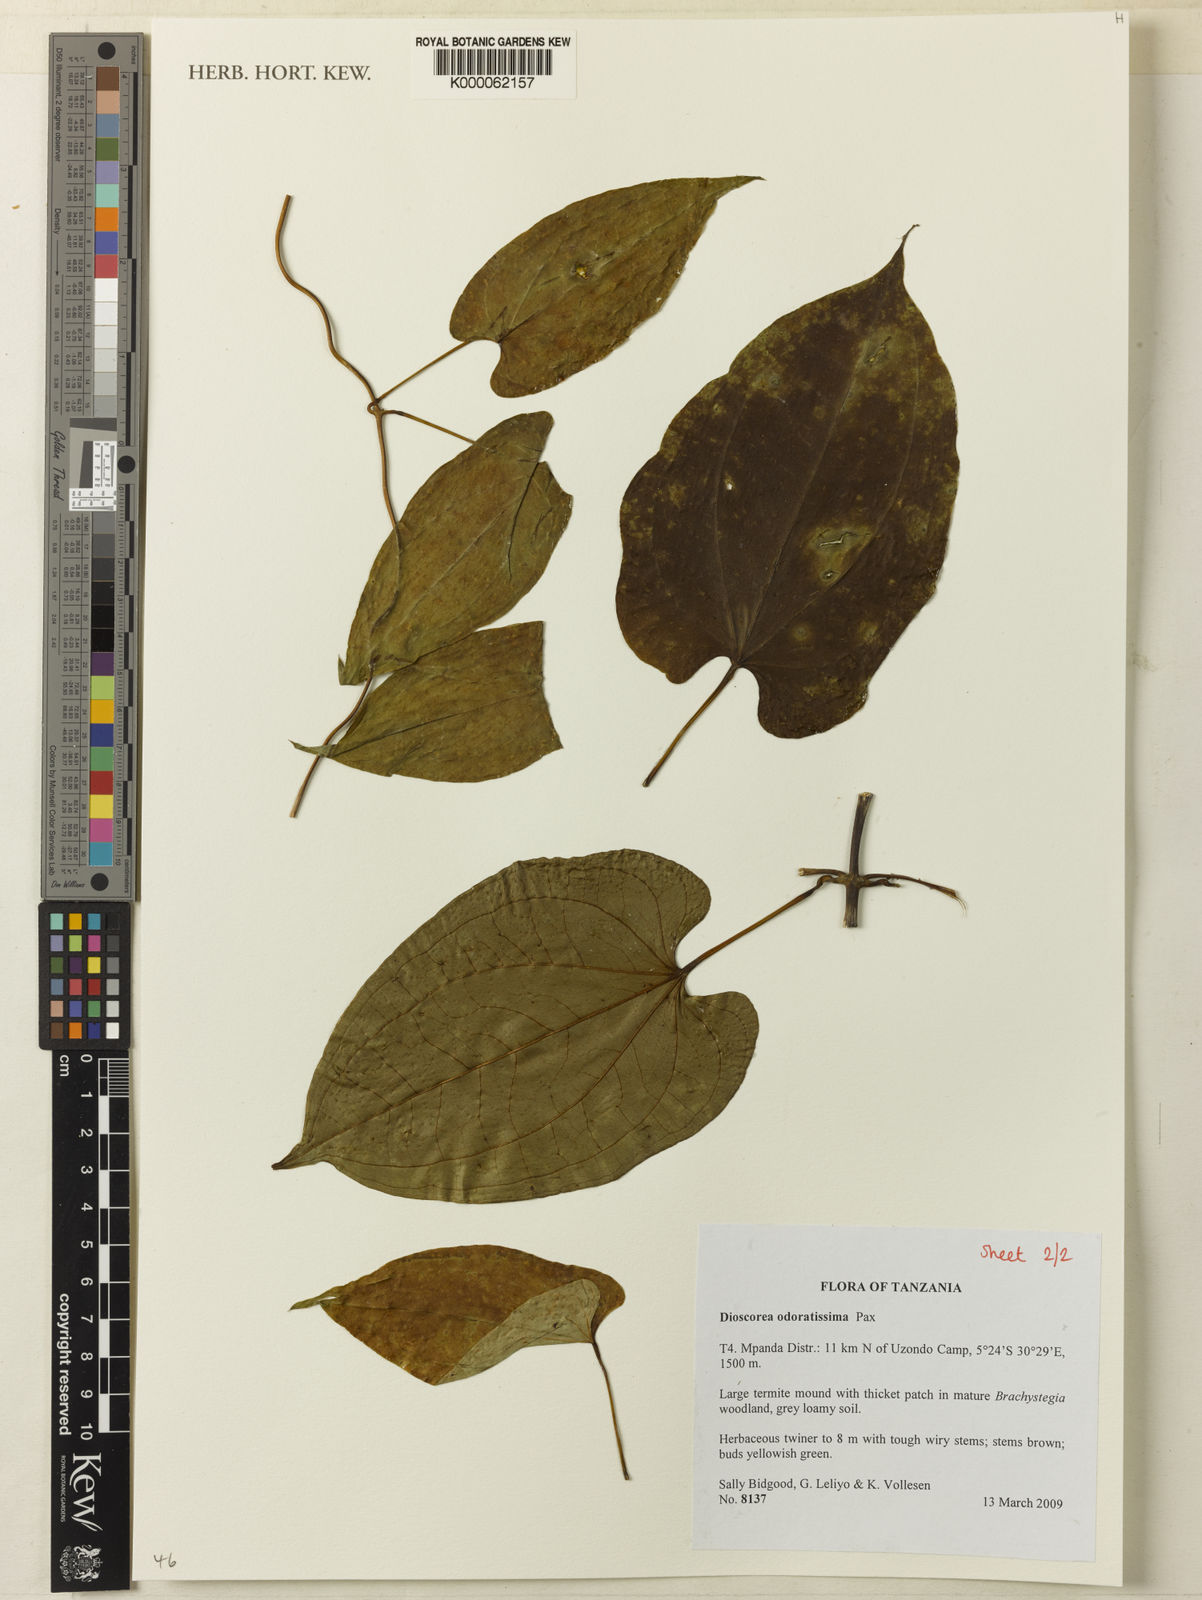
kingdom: Plantae
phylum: Tracheophyta
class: Liliopsida
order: Dioscoreales
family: Dioscoreaceae
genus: Dioscorea
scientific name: Dioscorea praehensilis
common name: Bush yam
